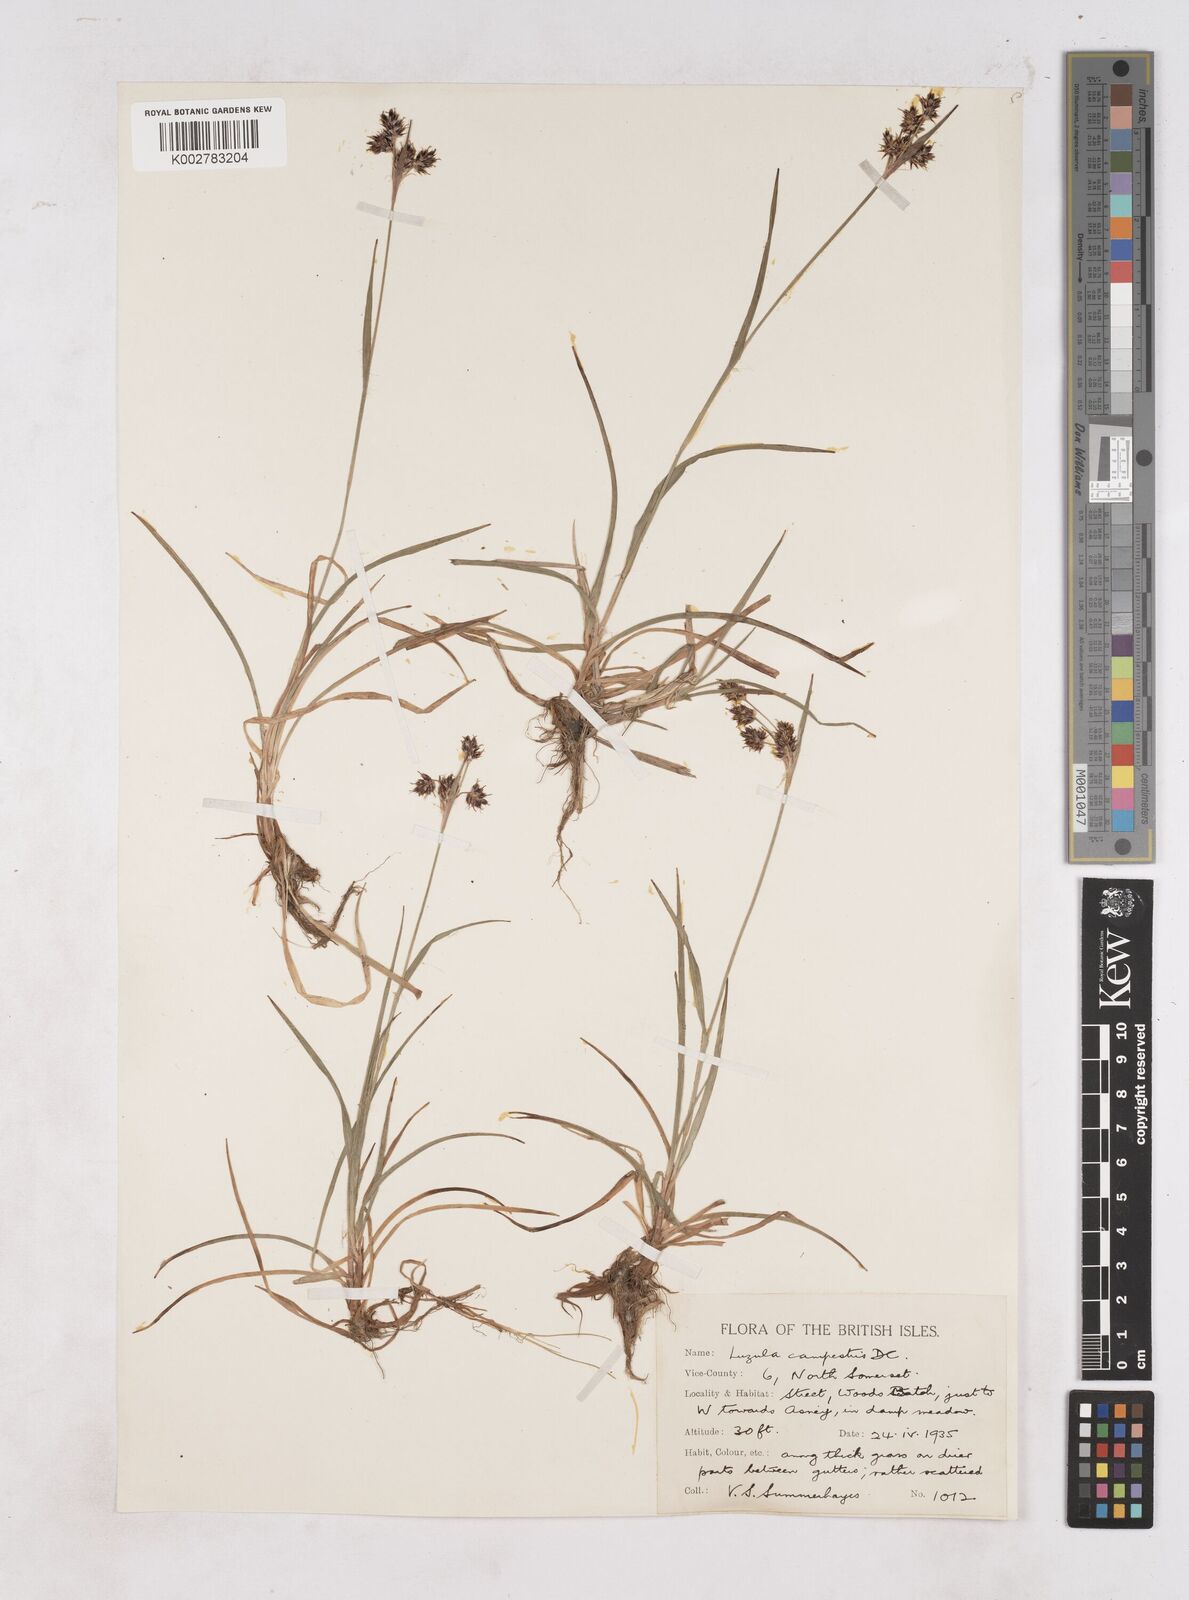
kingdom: Plantae
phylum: Tracheophyta
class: Liliopsida
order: Poales
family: Juncaceae
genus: Luzula
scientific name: Luzula multiflora
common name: Heath wood-rush
